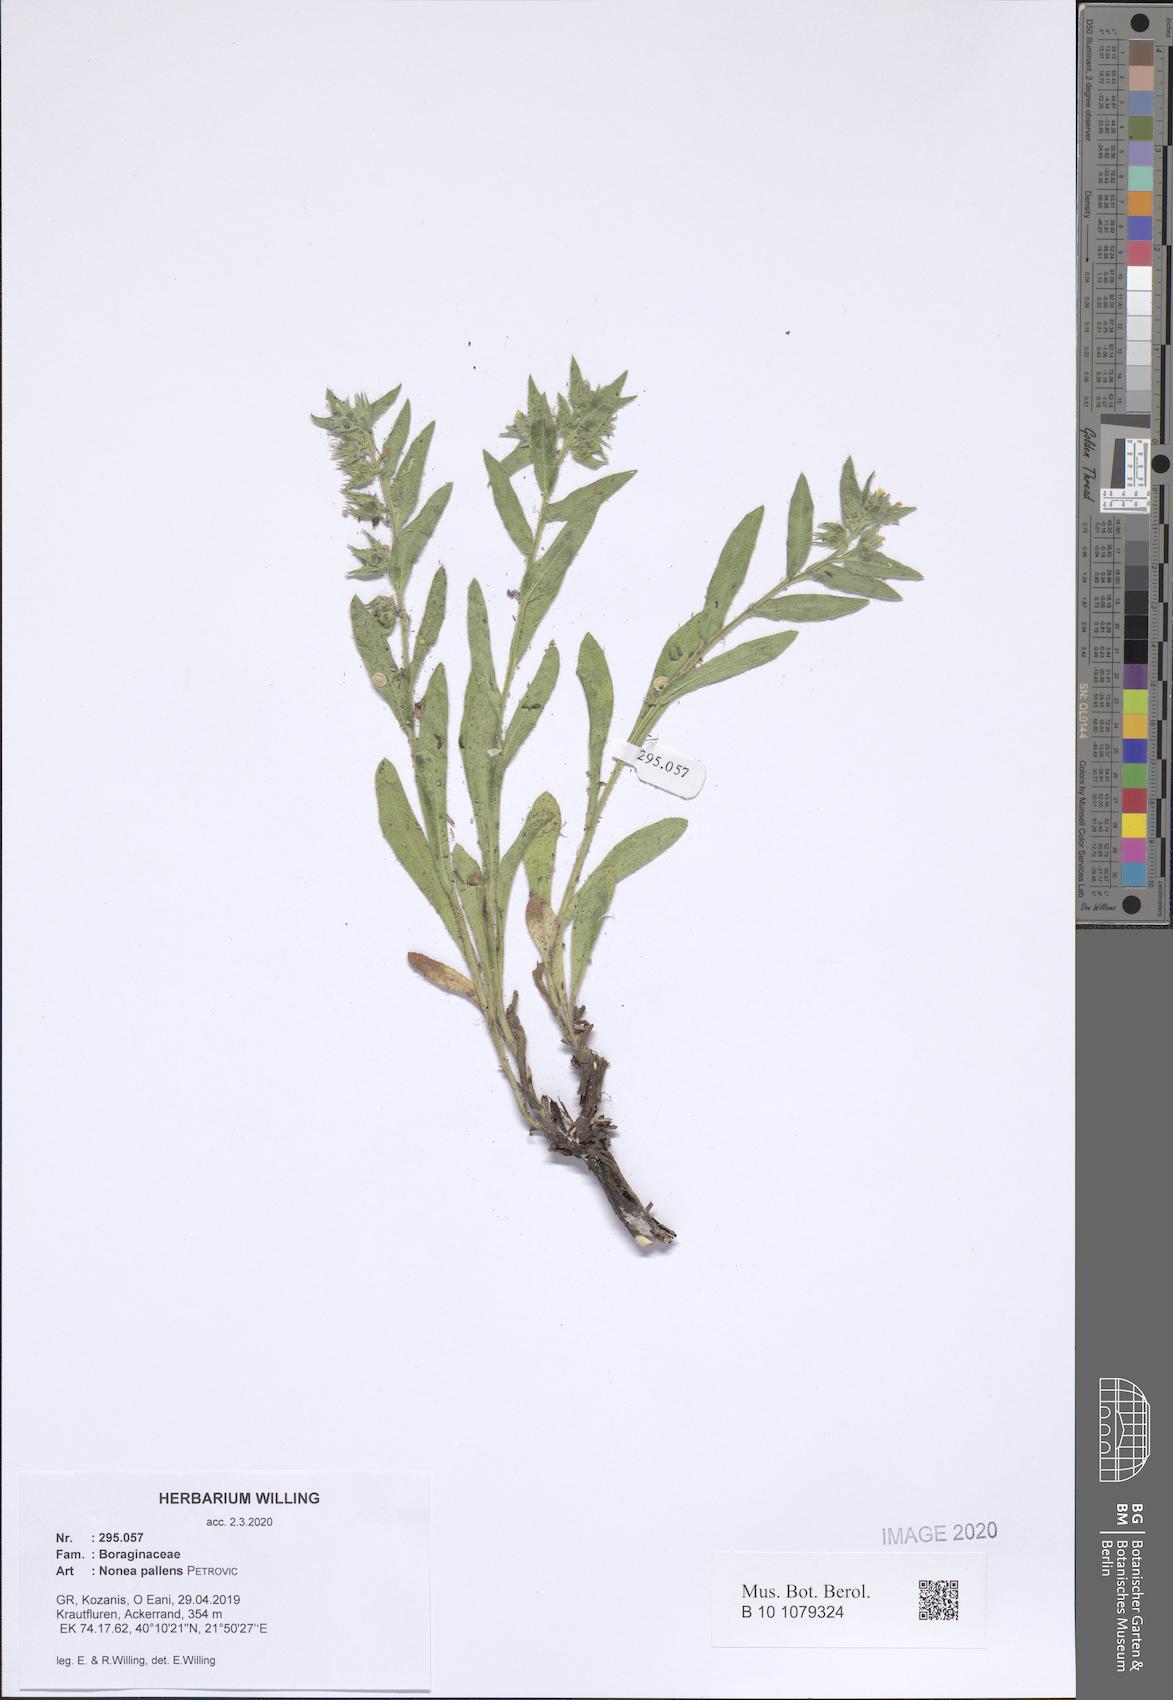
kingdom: Plantae
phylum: Tracheophyta
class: Magnoliopsida
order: Boraginales
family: Boraginaceae
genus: Nonea
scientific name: Nonea pallens
